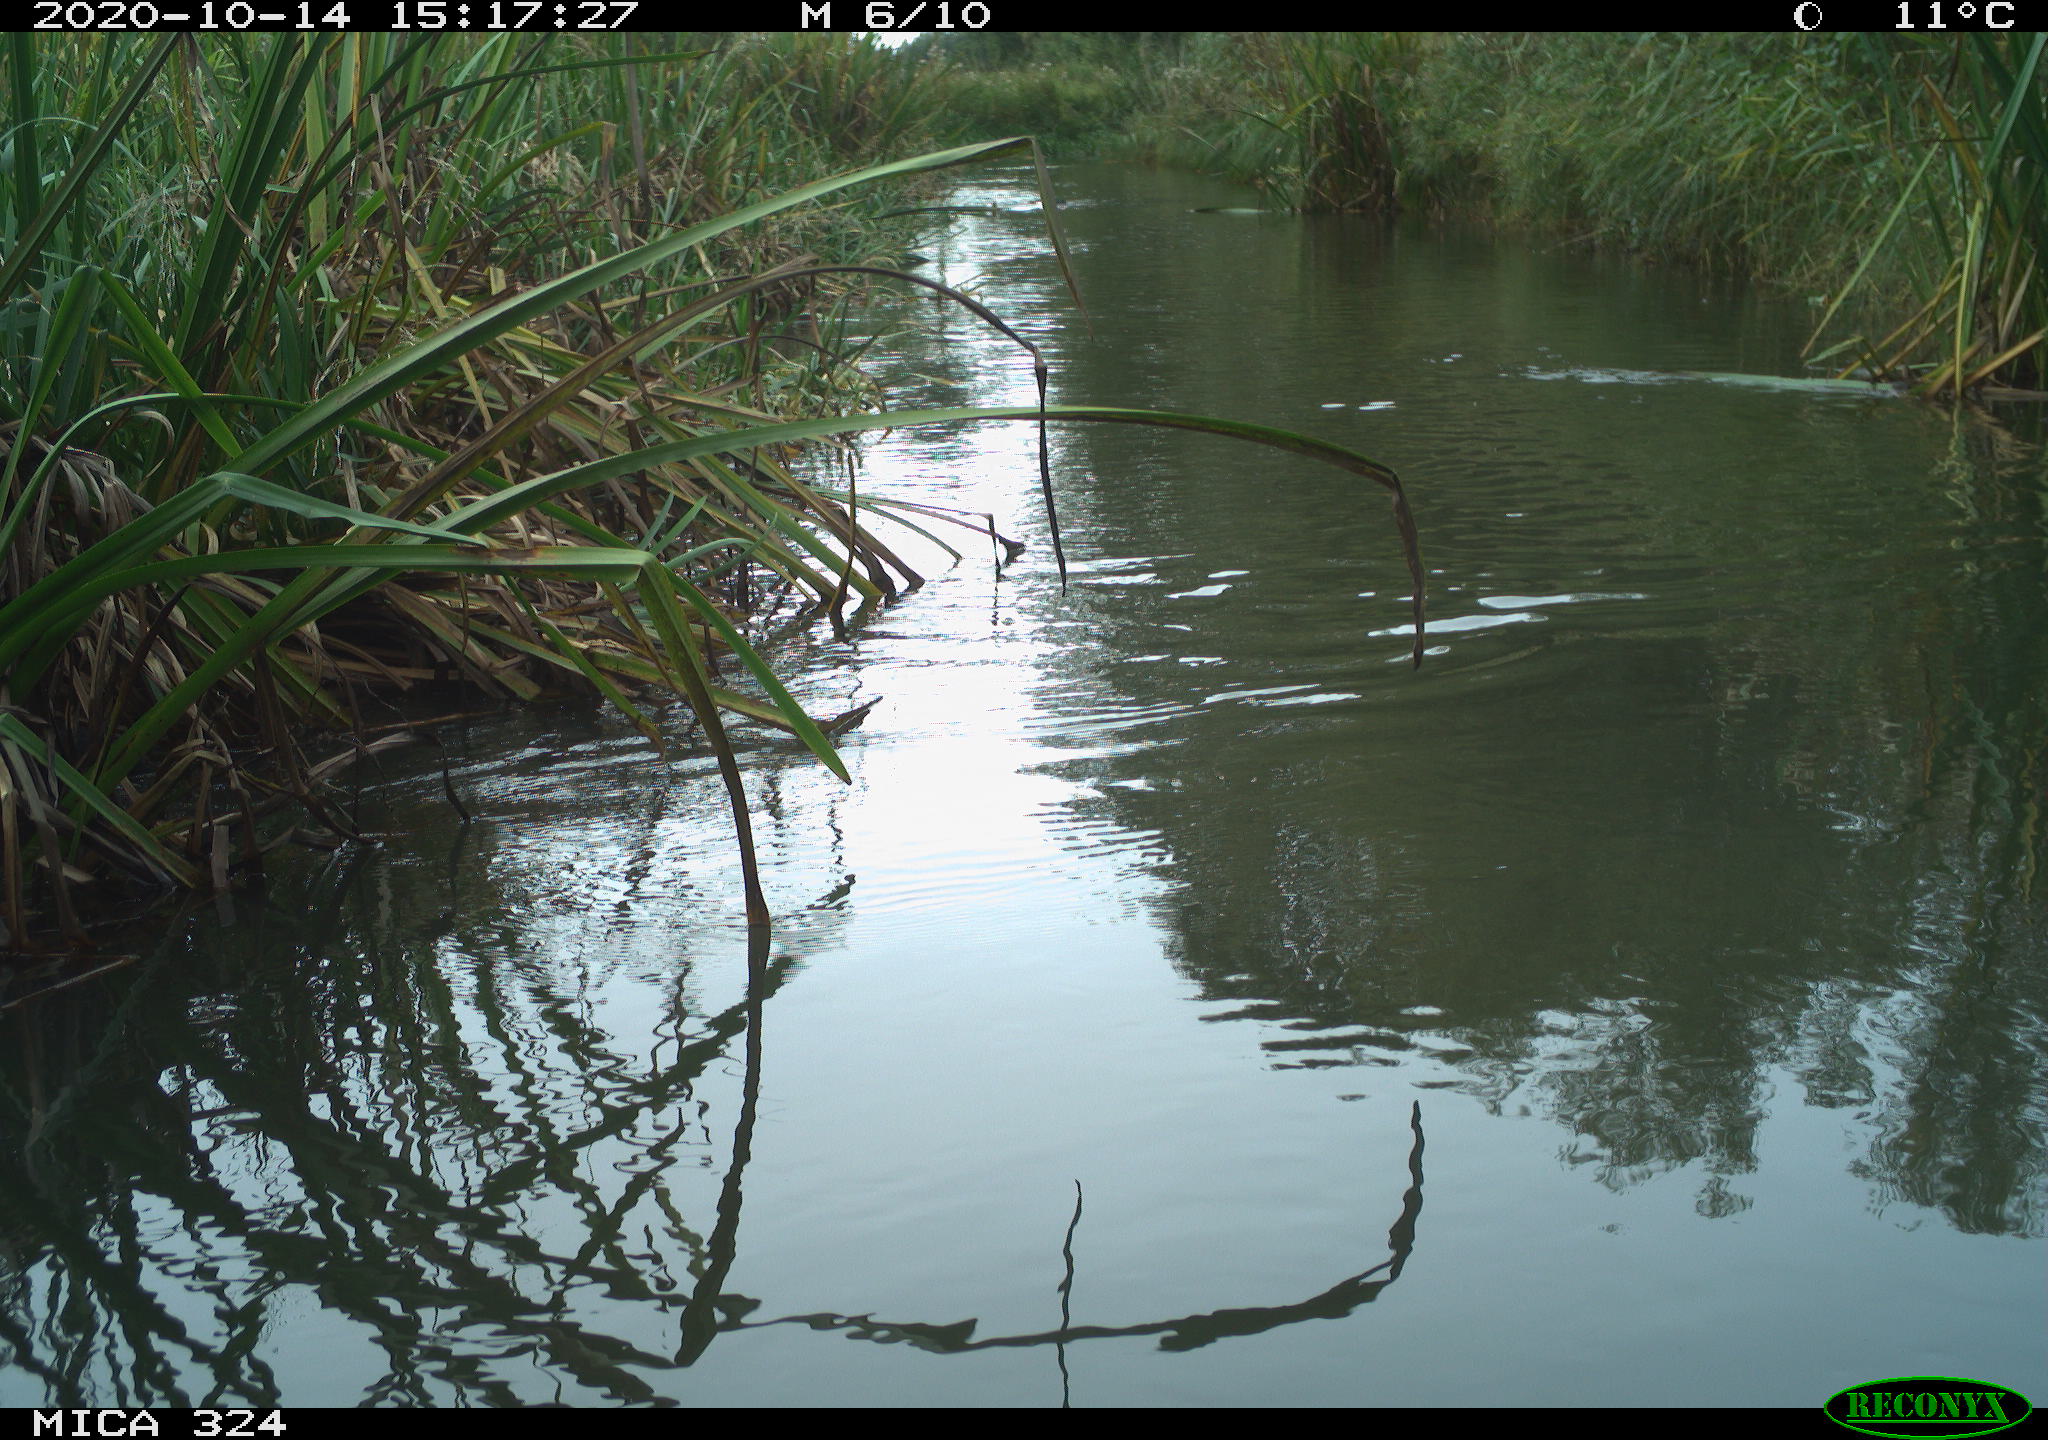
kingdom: Animalia
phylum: Chordata
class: Aves
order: Gruiformes
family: Rallidae
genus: Fulica
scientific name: Fulica atra
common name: Eurasian coot
